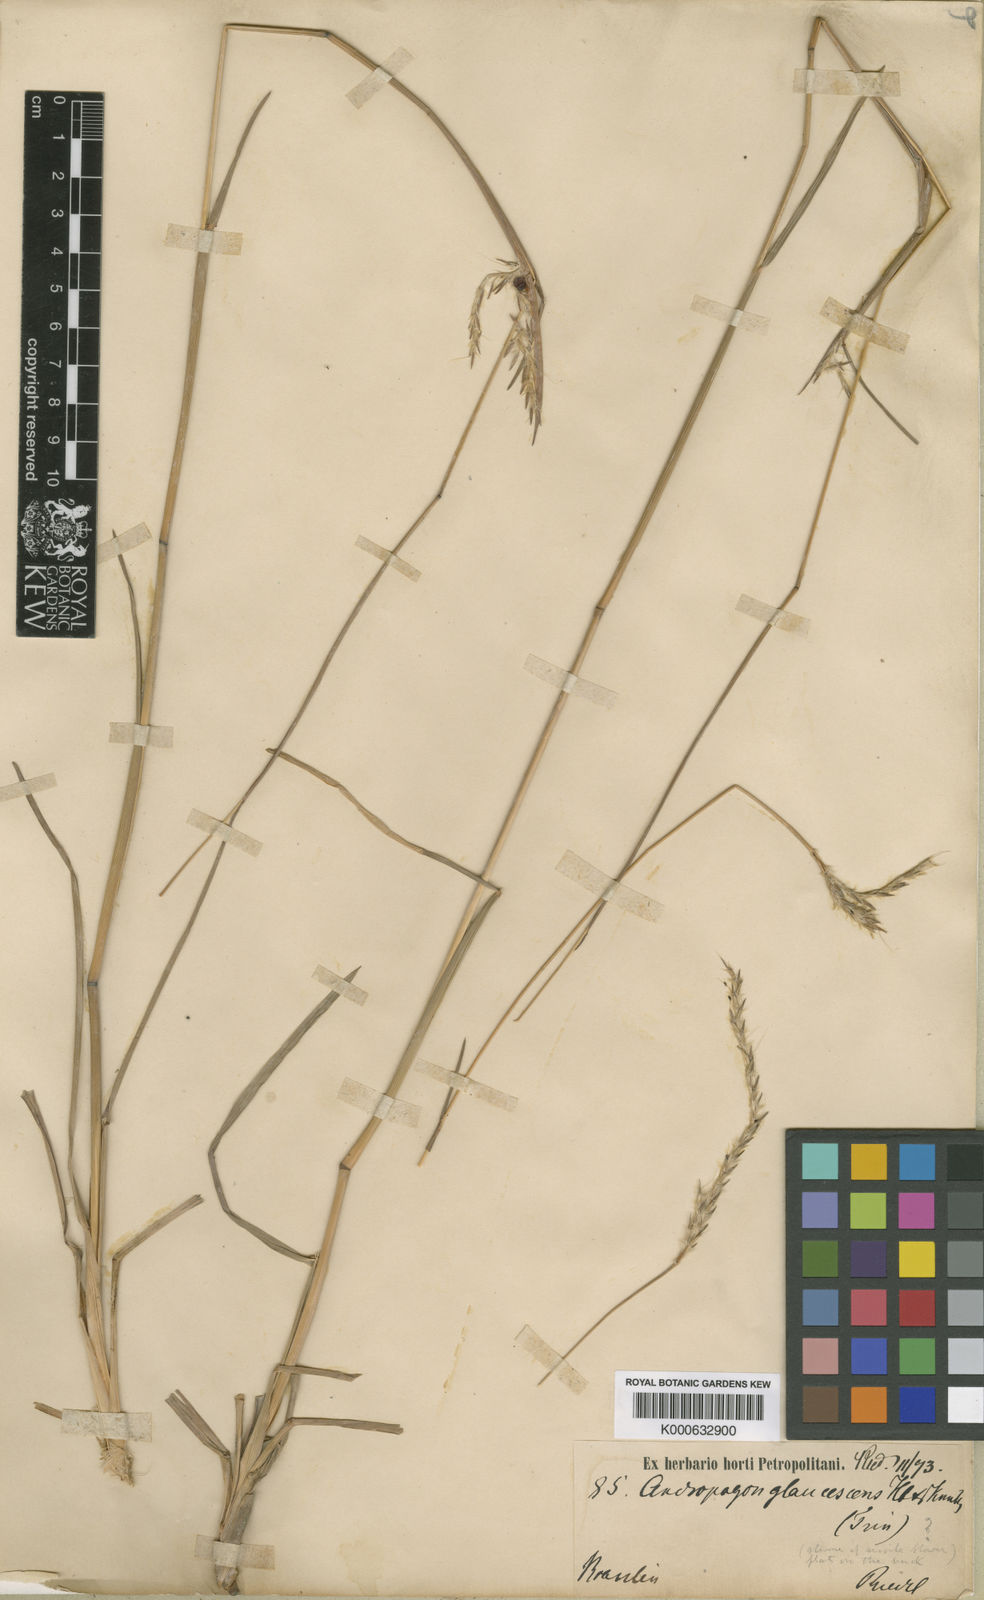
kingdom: Plantae
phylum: Tracheophyta
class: Liliopsida
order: Poales
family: Poaceae
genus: Andropogon
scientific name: Andropogon lateralis
